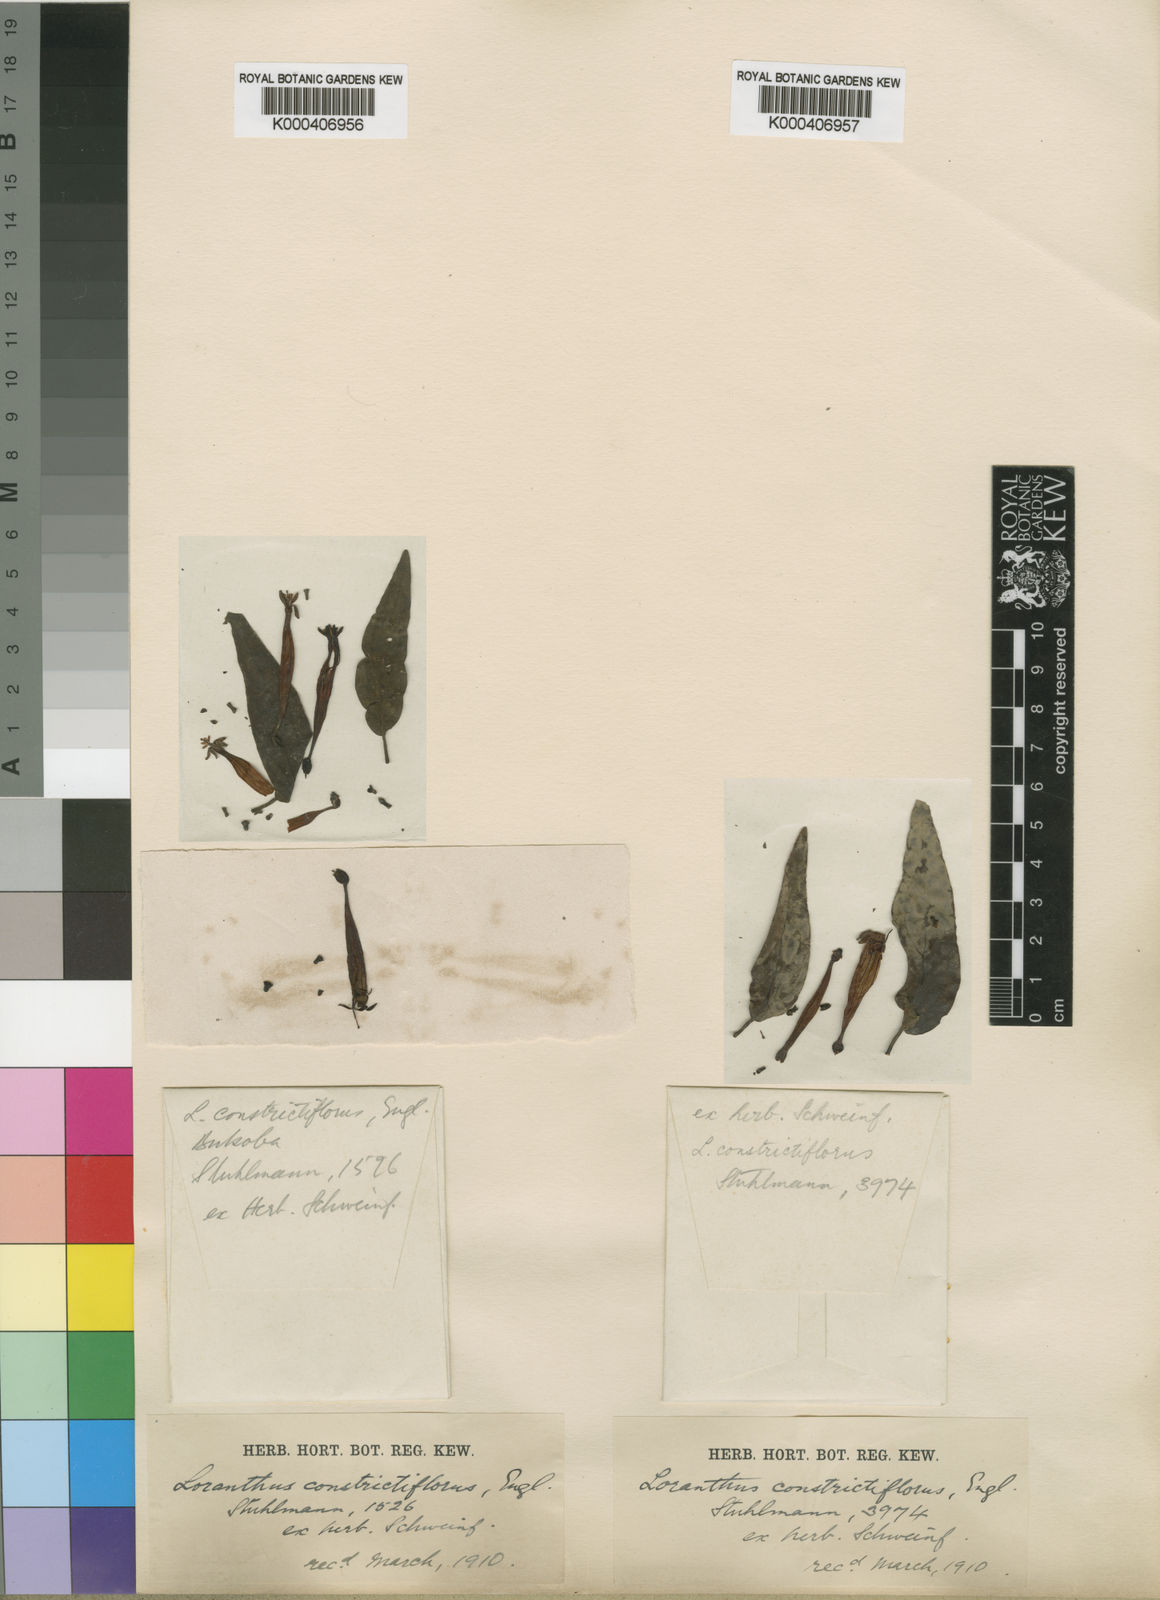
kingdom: Plantae
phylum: Tracheophyta
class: Magnoliopsida
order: Santalales
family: Loranthaceae
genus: Tapinanthus
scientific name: Tapinanthus constrictiflorus
